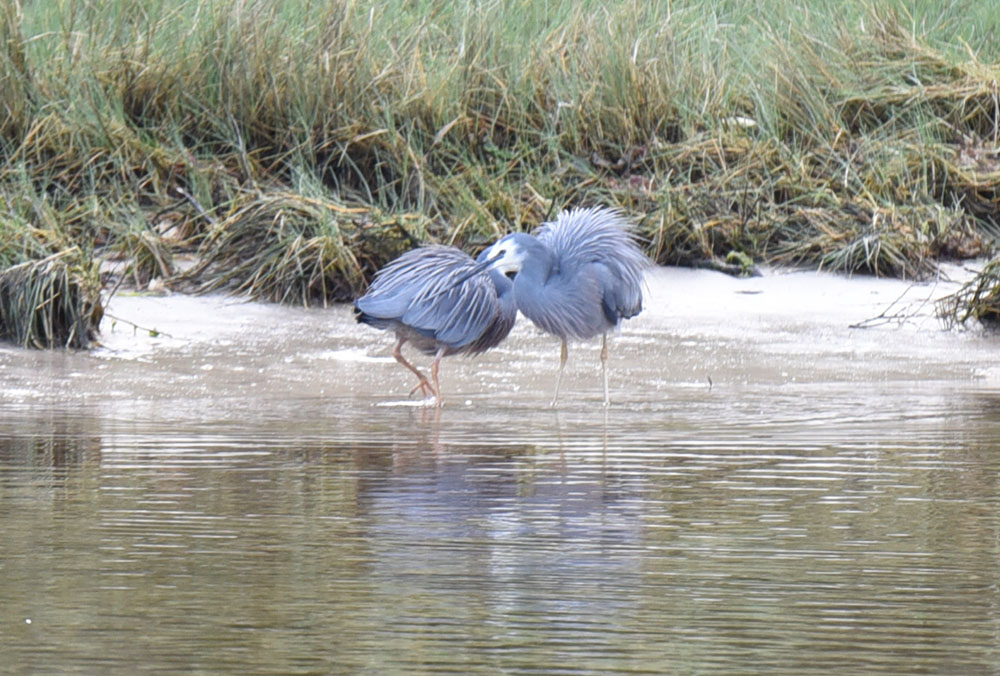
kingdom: Animalia
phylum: Chordata
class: Aves
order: Pelecaniformes
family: Ardeidae
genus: Egretta
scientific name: Egretta novaehollandiae
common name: White-faced heron
